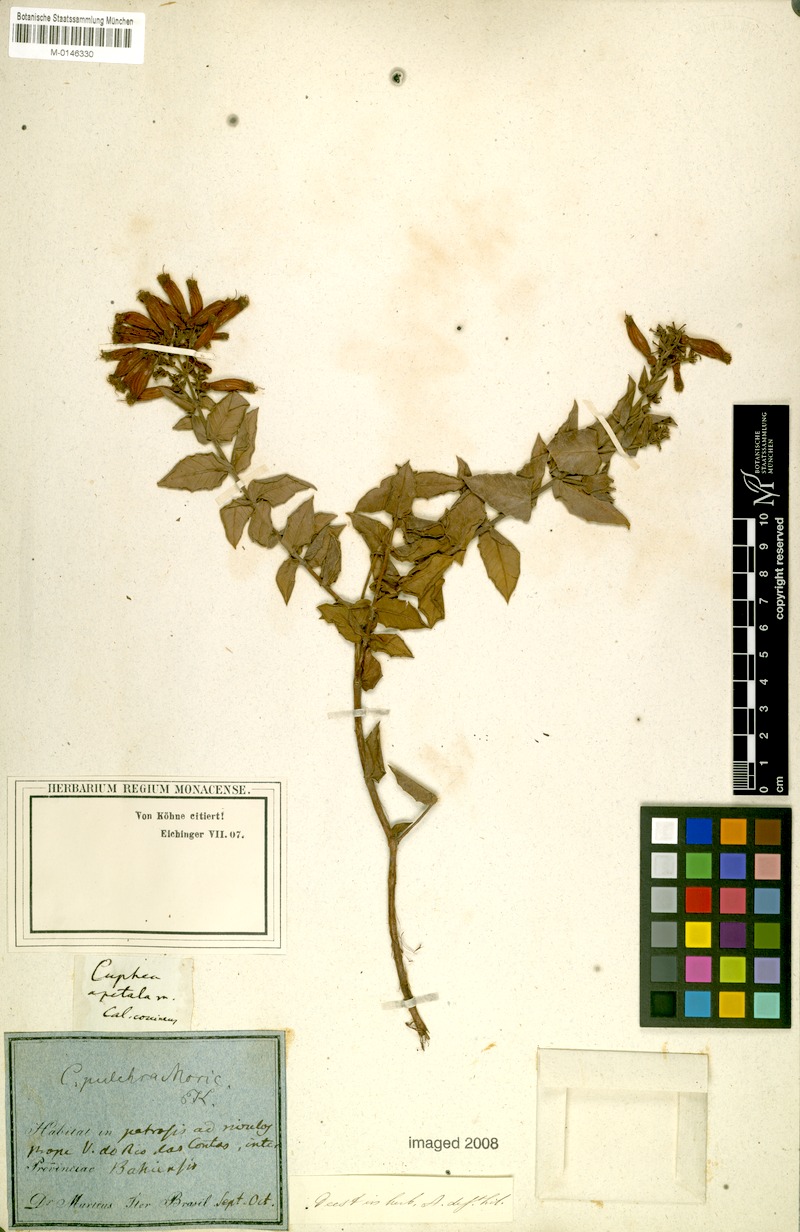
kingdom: Plantae
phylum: Tracheophyta
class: Magnoliopsida
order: Myrtales
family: Lythraceae
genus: Cuphea
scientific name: Cuphea pulchra
